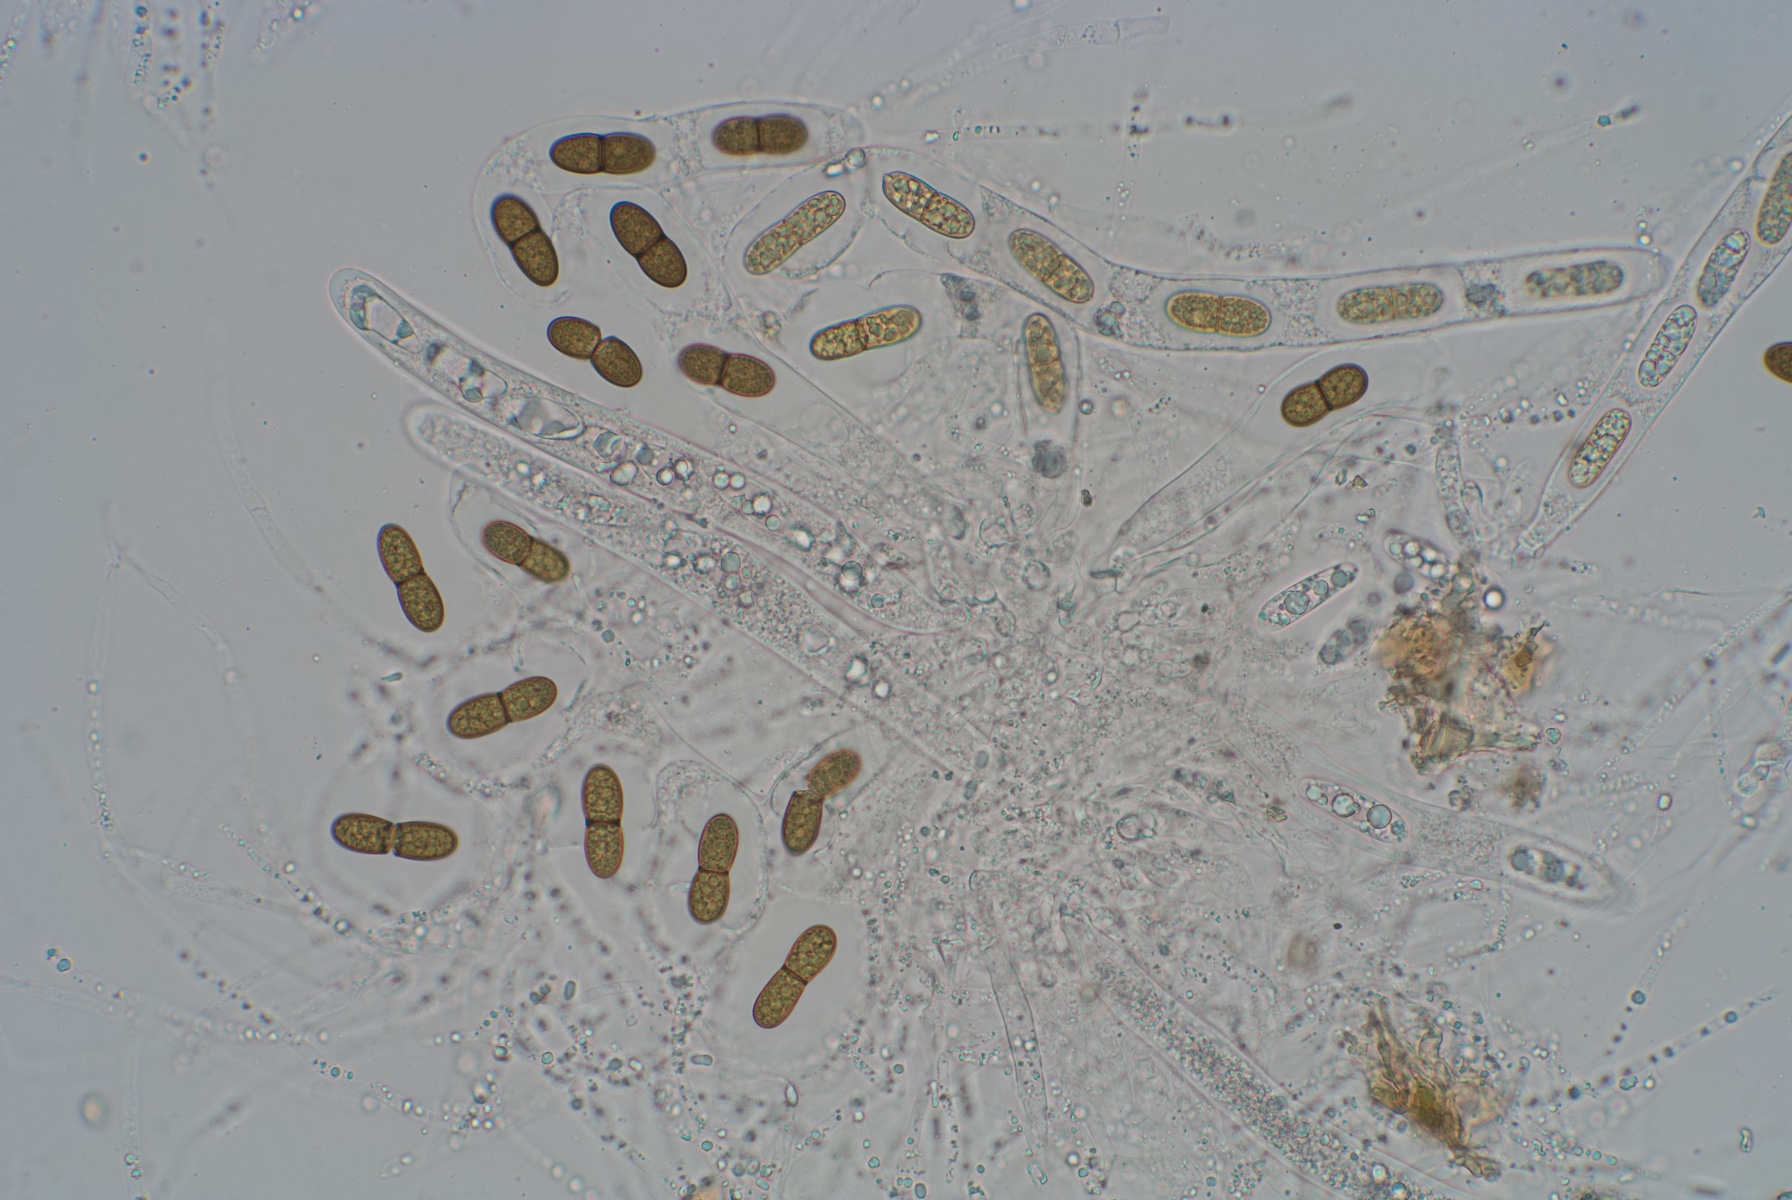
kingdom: Fungi
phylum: Ascomycota
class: Sordariomycetes
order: Amphisphaeriales
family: Amphisphaeriaceae
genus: Amphisphaeria
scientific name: Amphisphaeria bufonia
